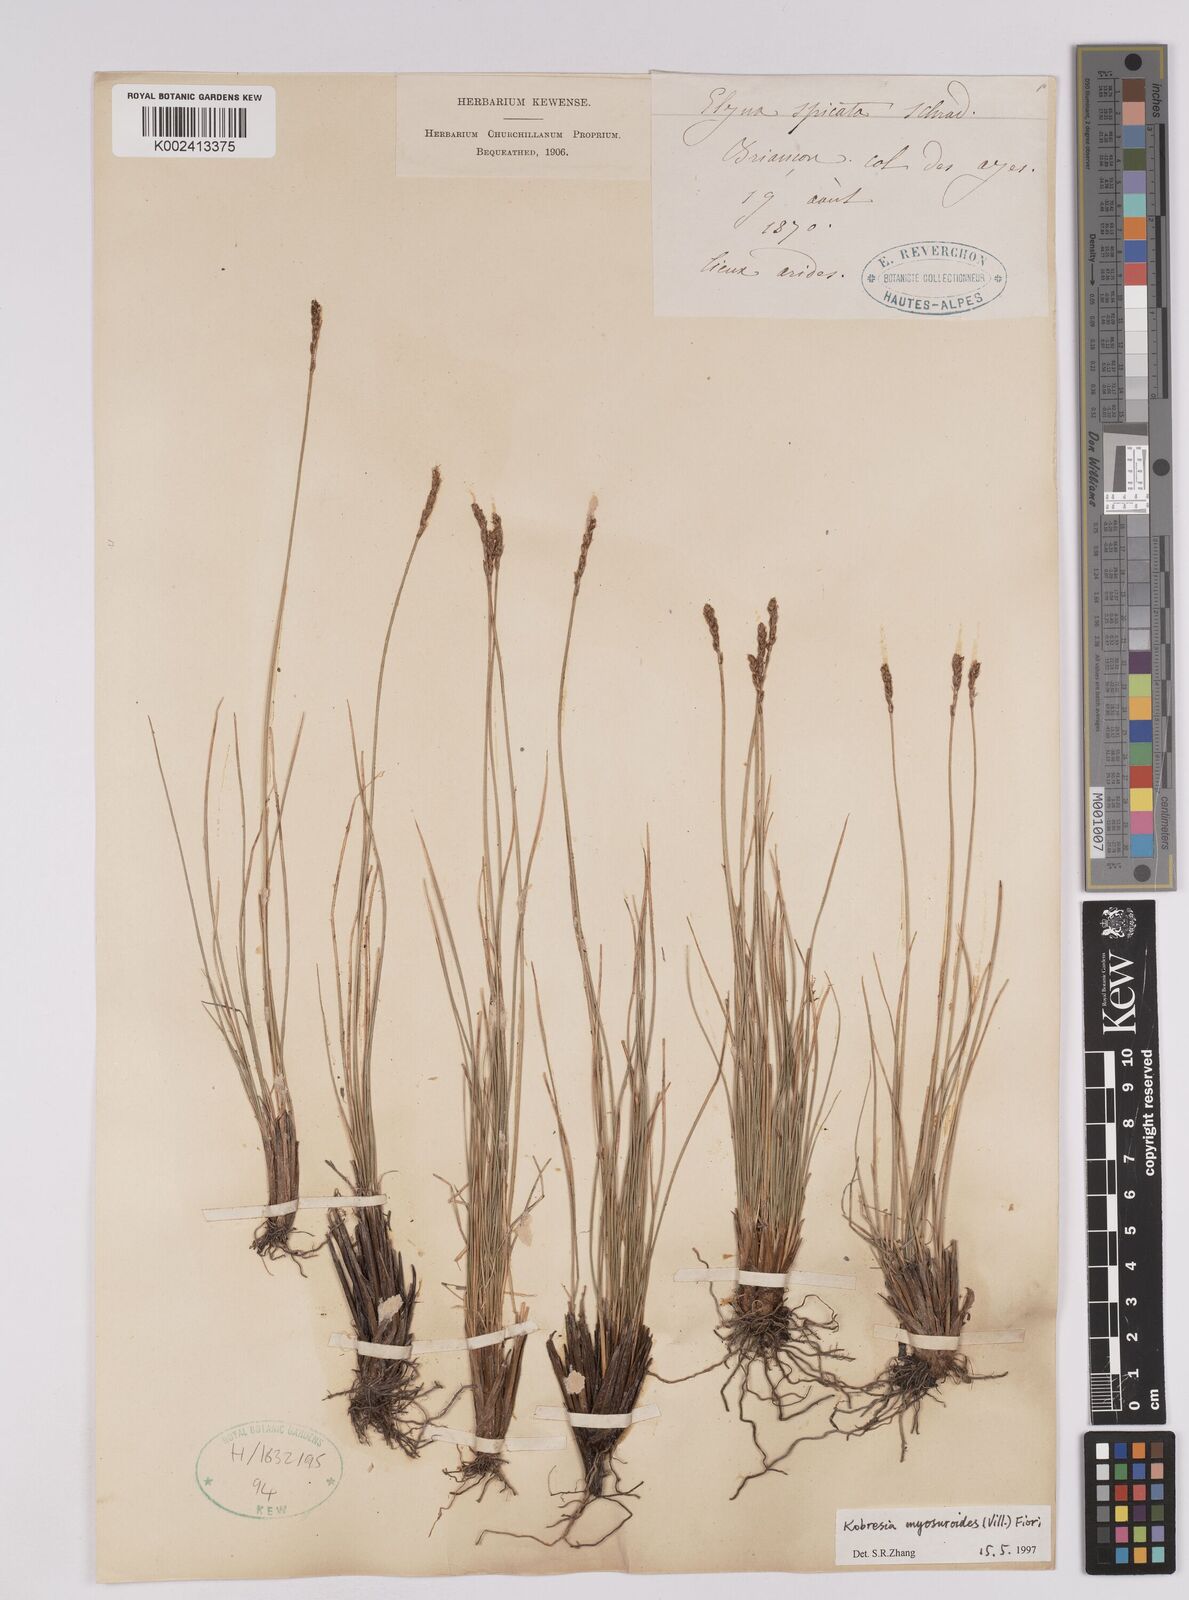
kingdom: Plantae
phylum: Tracheophyta
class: Liliopsida
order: Poales
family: Cyperaceae
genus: Carex
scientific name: Carex myosuroides
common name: Bellard's bog sedge
